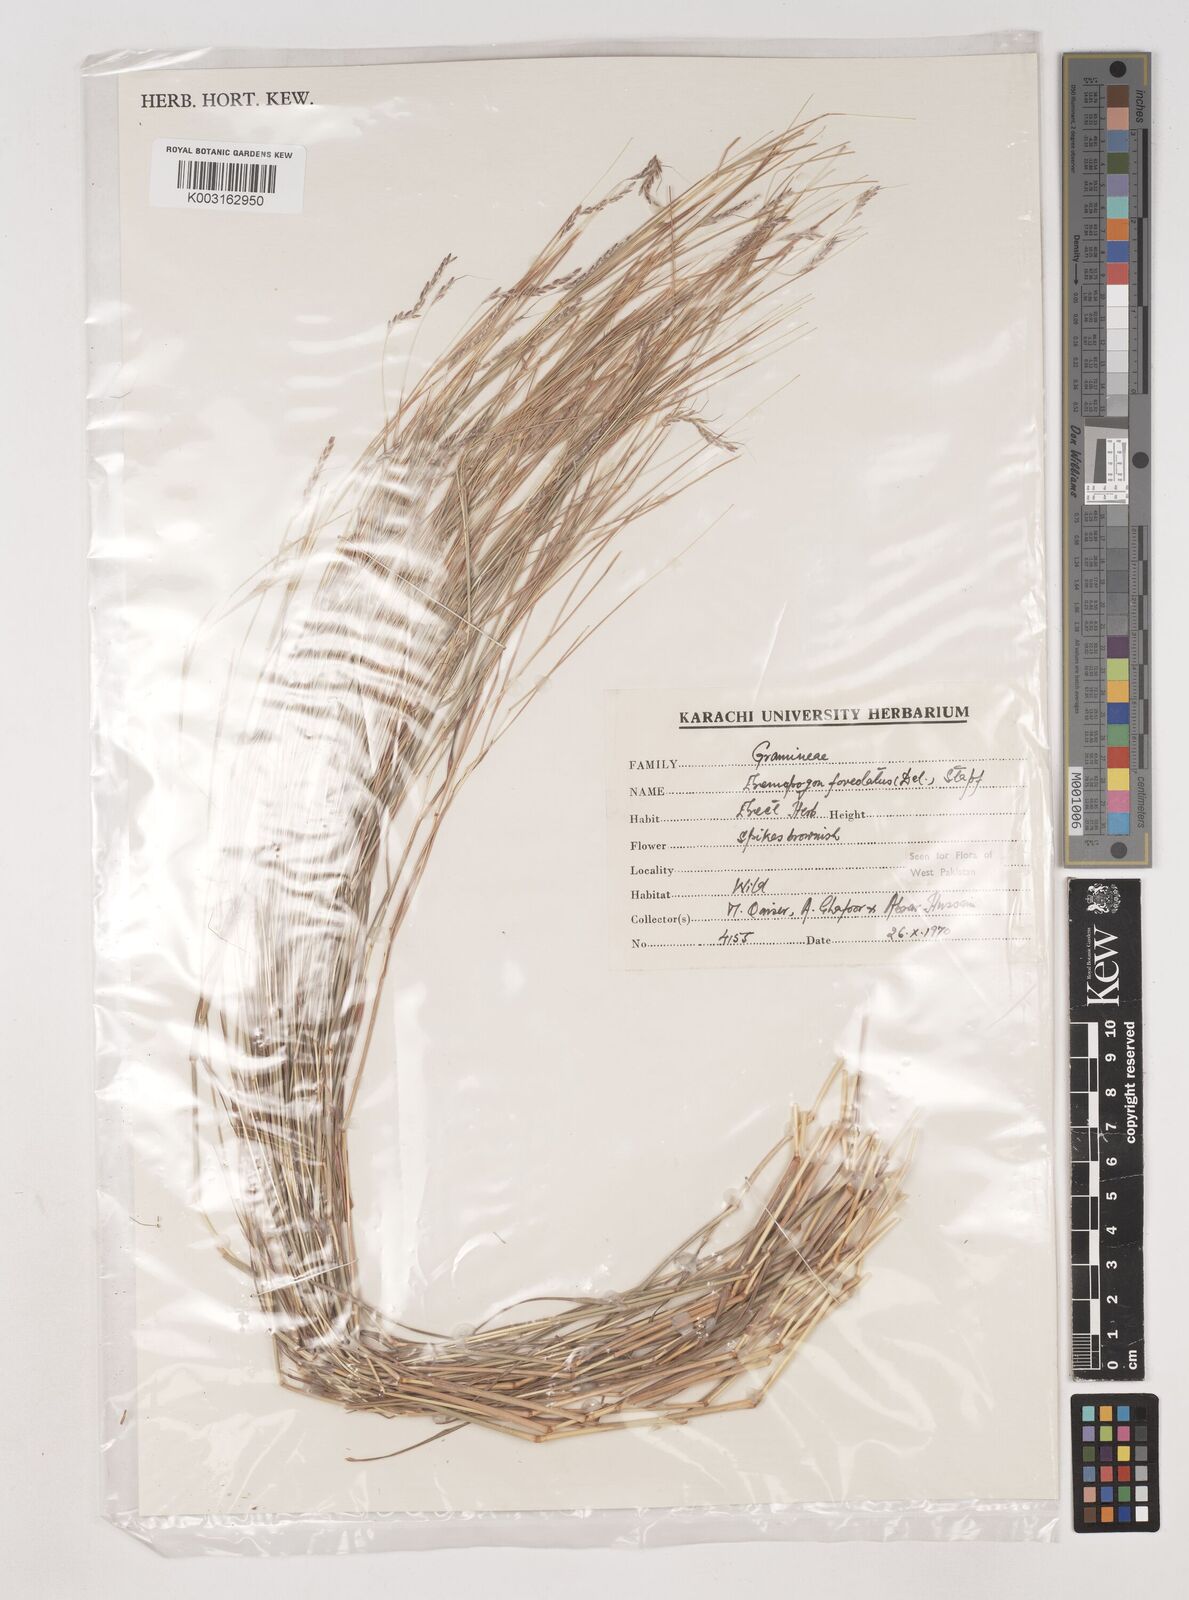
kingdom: Plantae
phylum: Tracheophyta
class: Liliopsida
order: Poales
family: Poaceae
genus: Dichanthium
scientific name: Dichanthium
